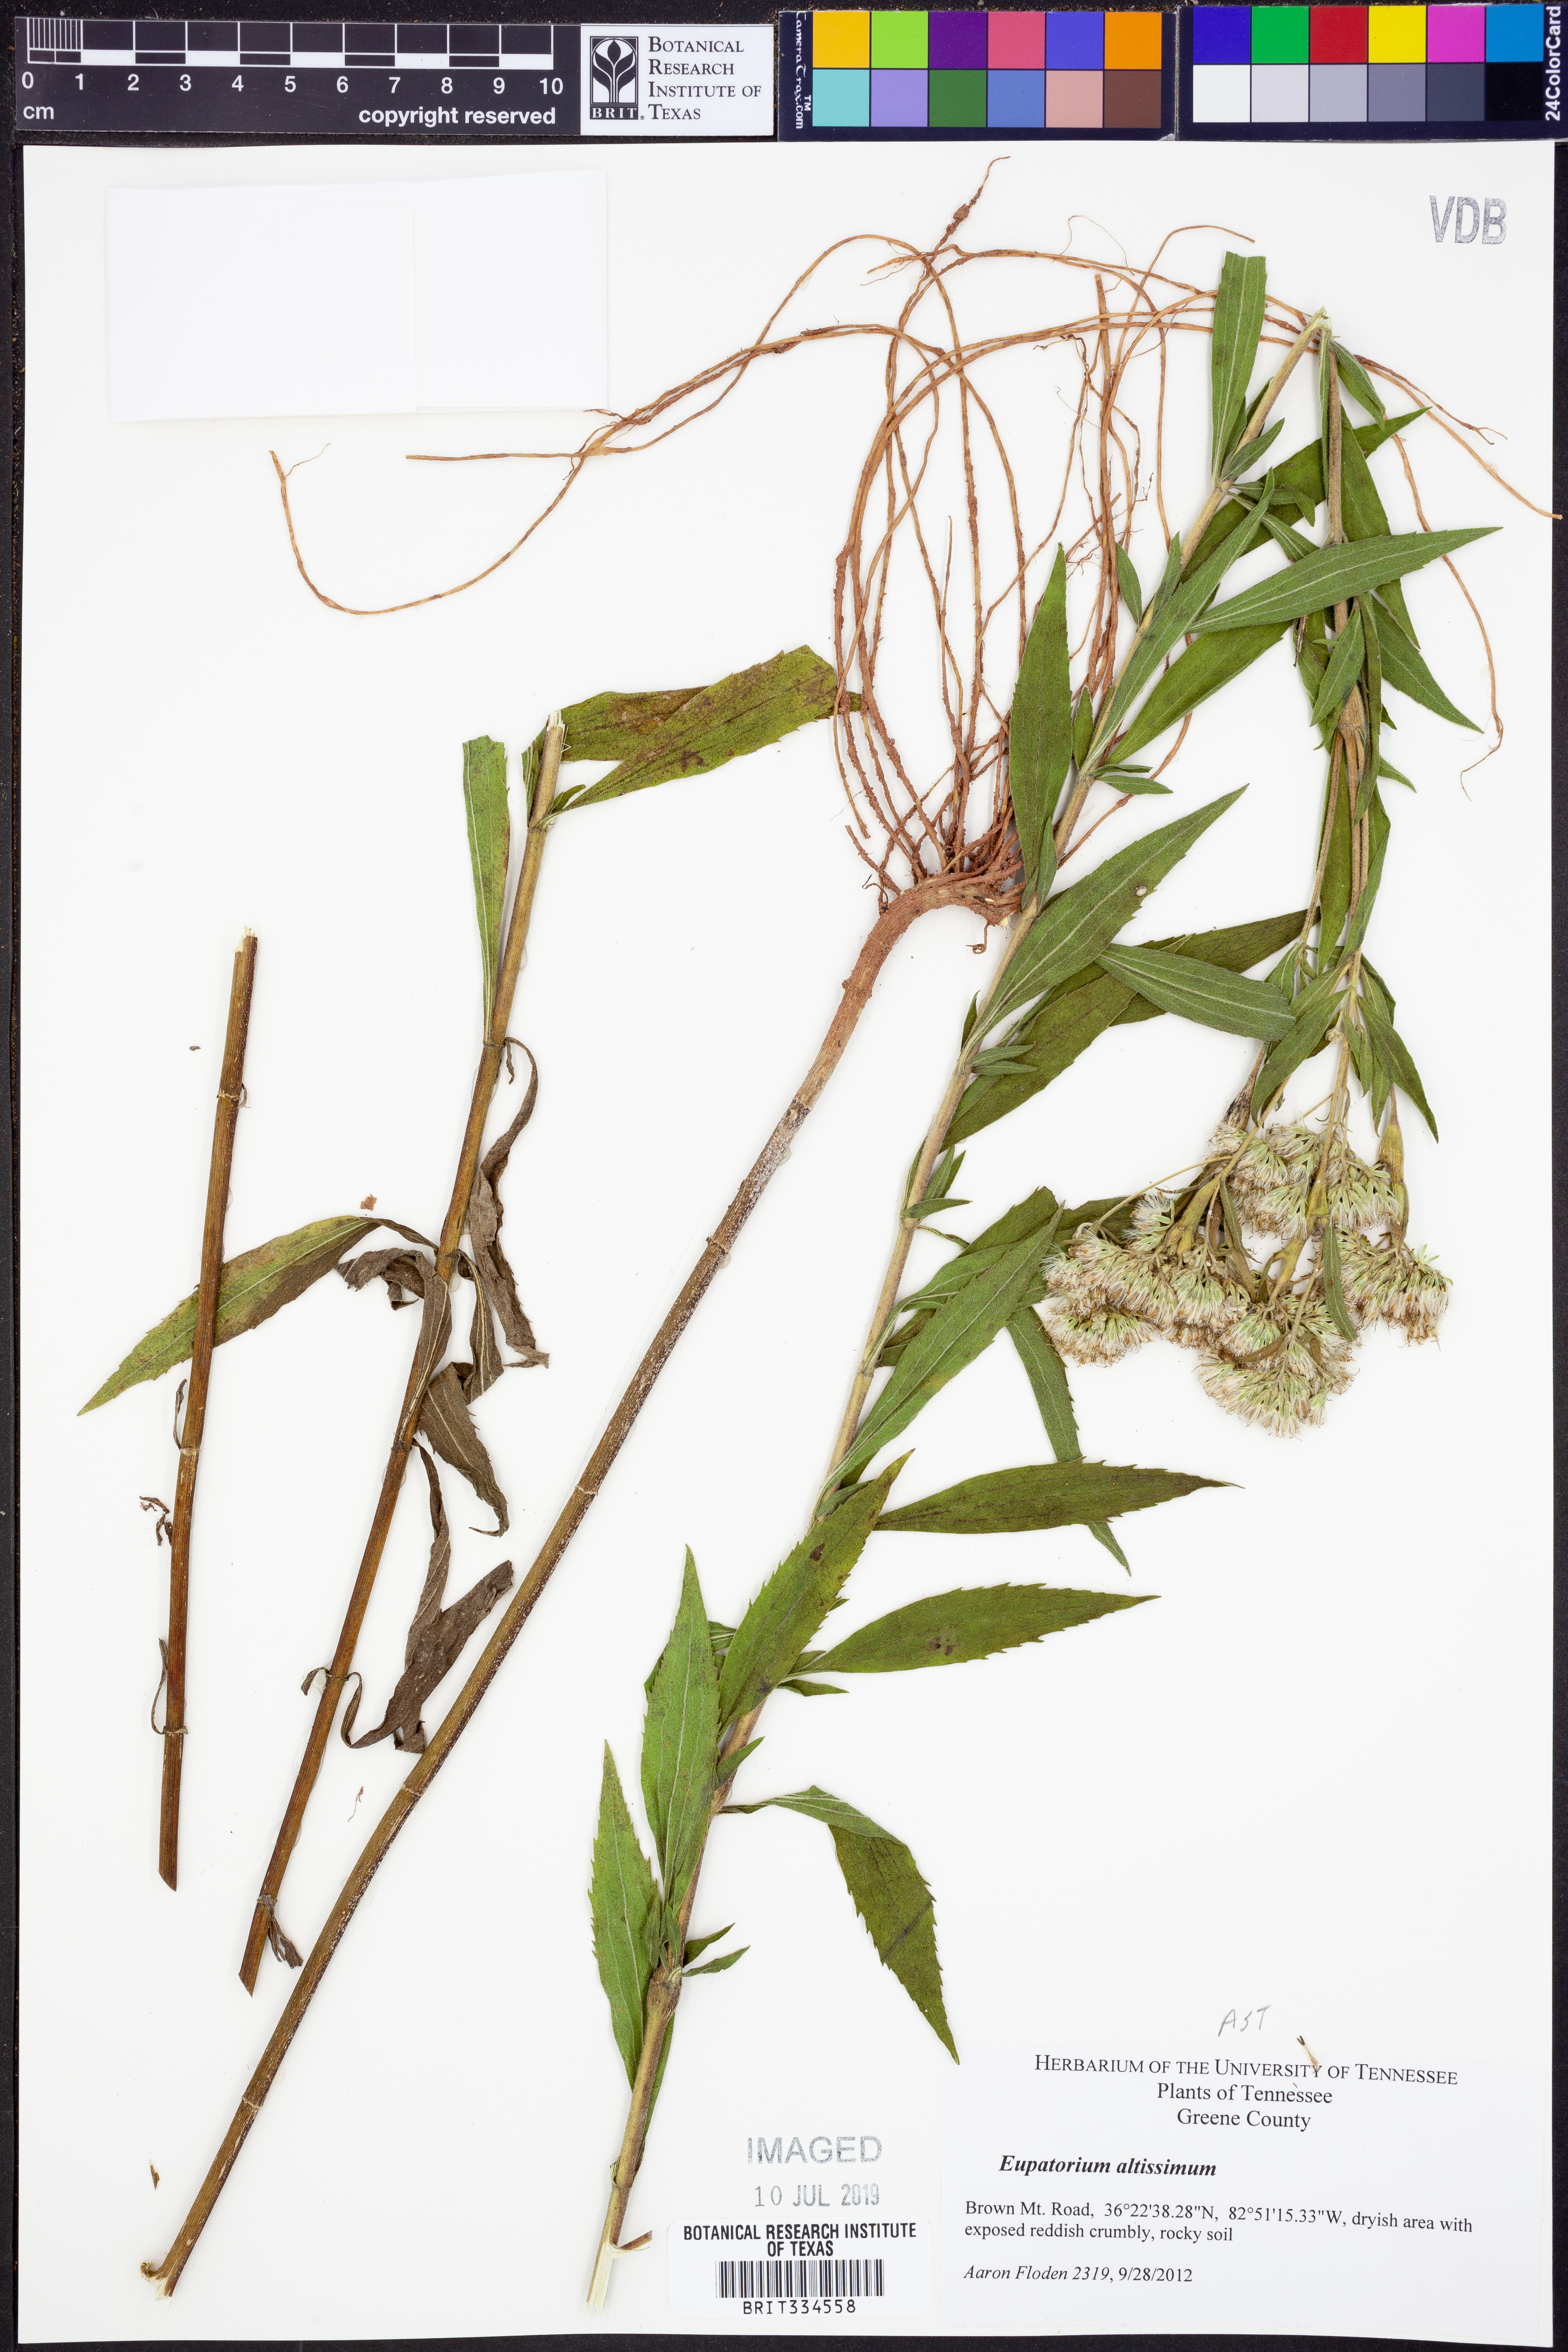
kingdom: Plantae
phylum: Tracheophyta
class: Magnoliopsida
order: Asterales
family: Asteraceae
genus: Eupatorium
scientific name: Eupatorium altissimum
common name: Tall thoroughwort
